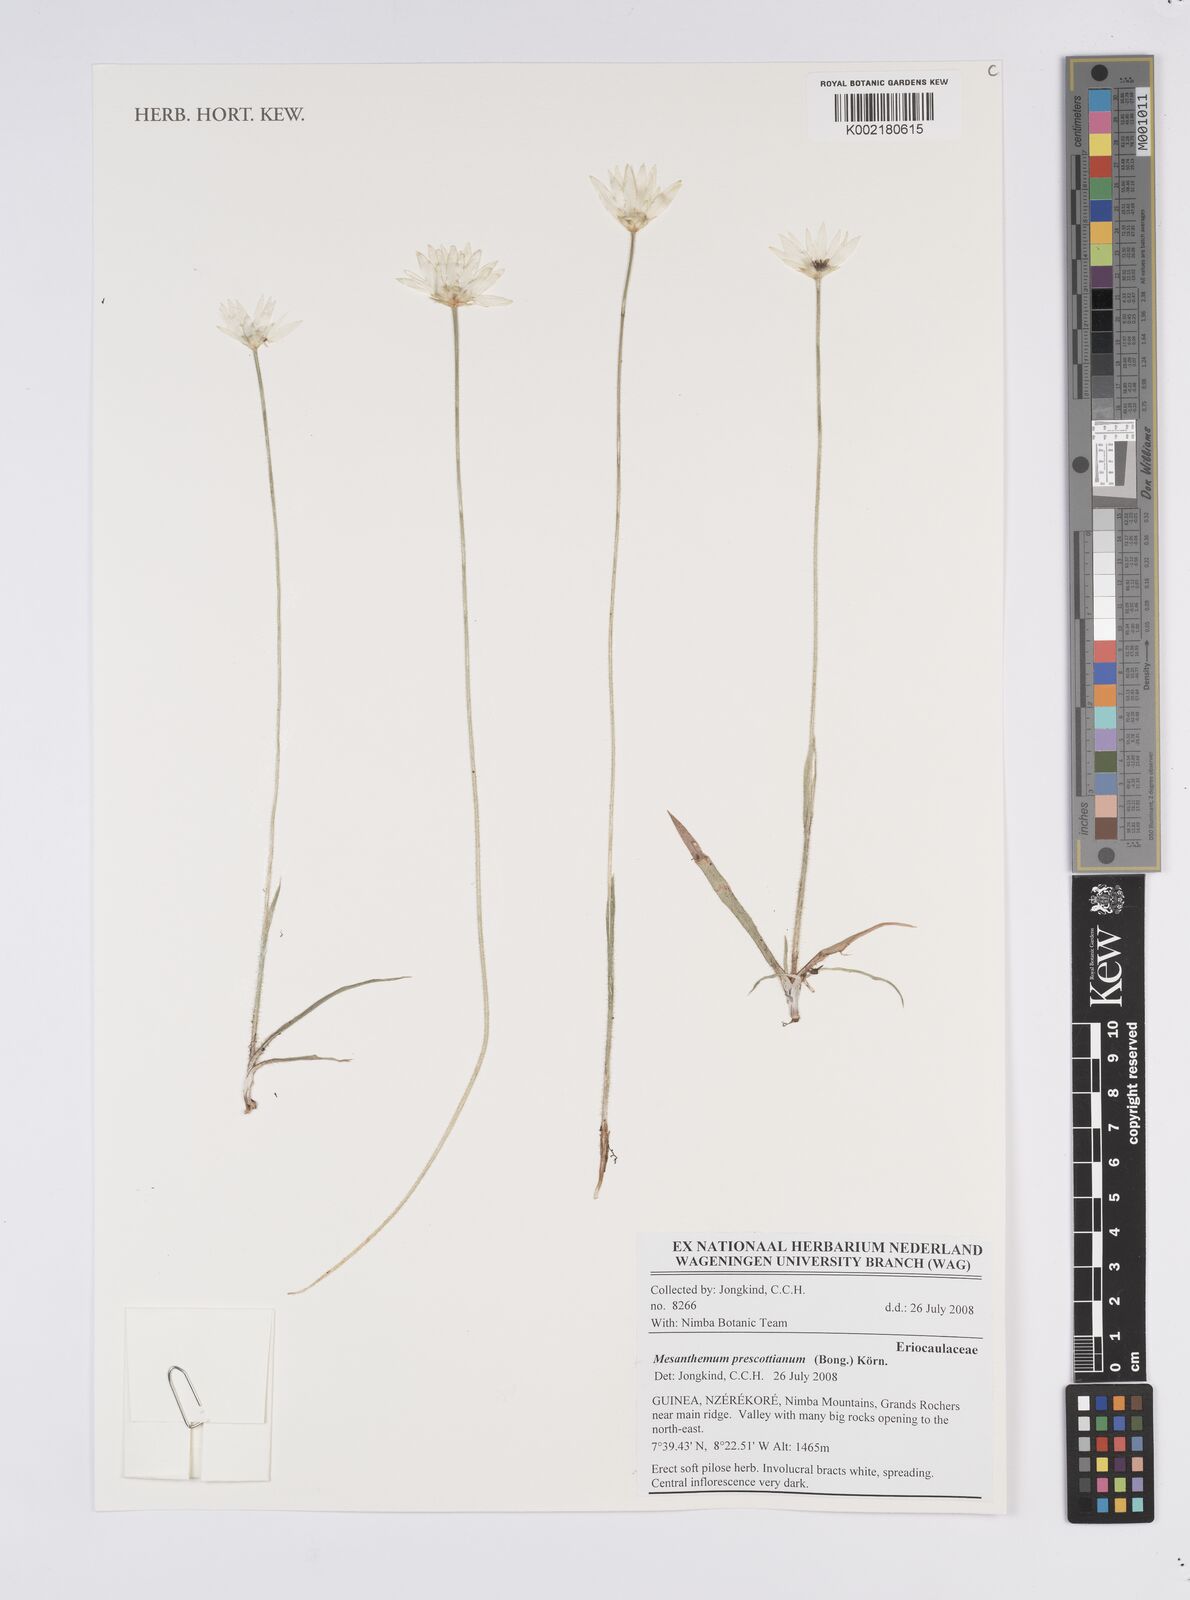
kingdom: Plantae
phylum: Tracheophyta
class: Liliopsida
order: Poales
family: Eriocaulaceae
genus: Mesanthemum
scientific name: Mesanthemum prescottianum
